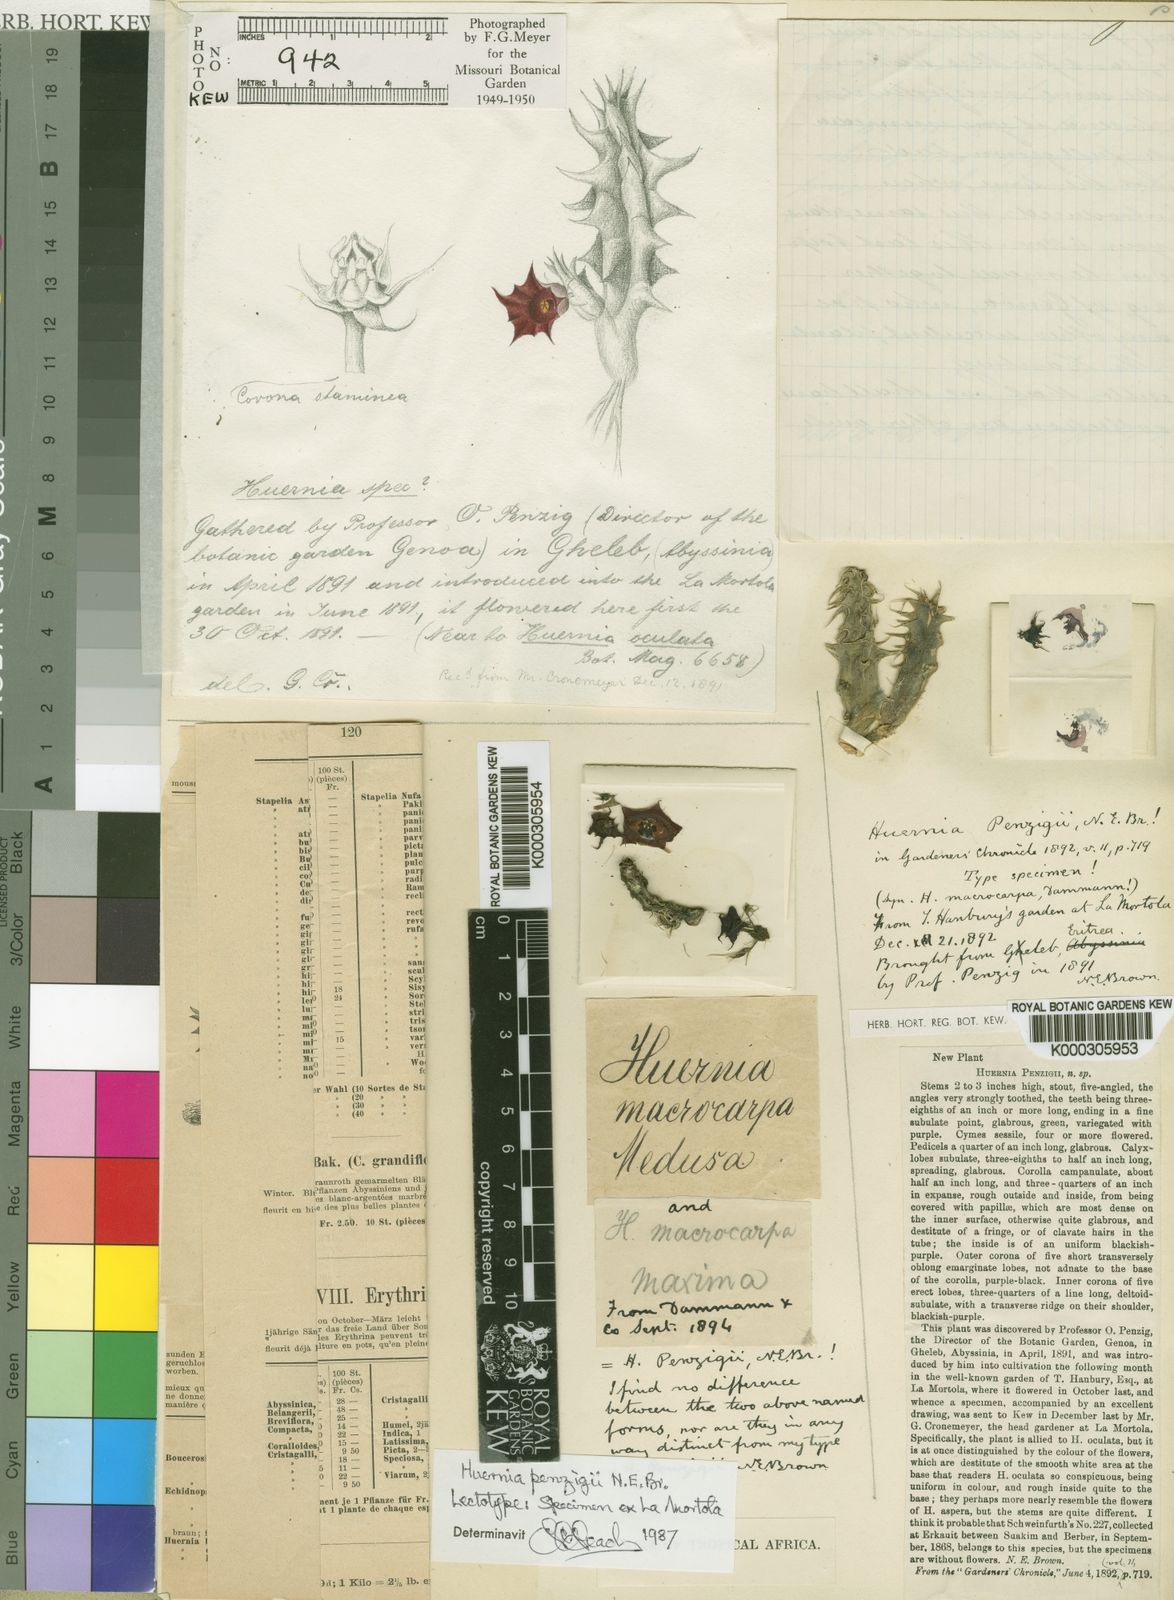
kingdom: Plantae
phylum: Tracheophyta
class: Magnoliopsida
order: Gentianales
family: Apocynaceae
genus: Ceropegia
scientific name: Ceropegia macrocarpa
